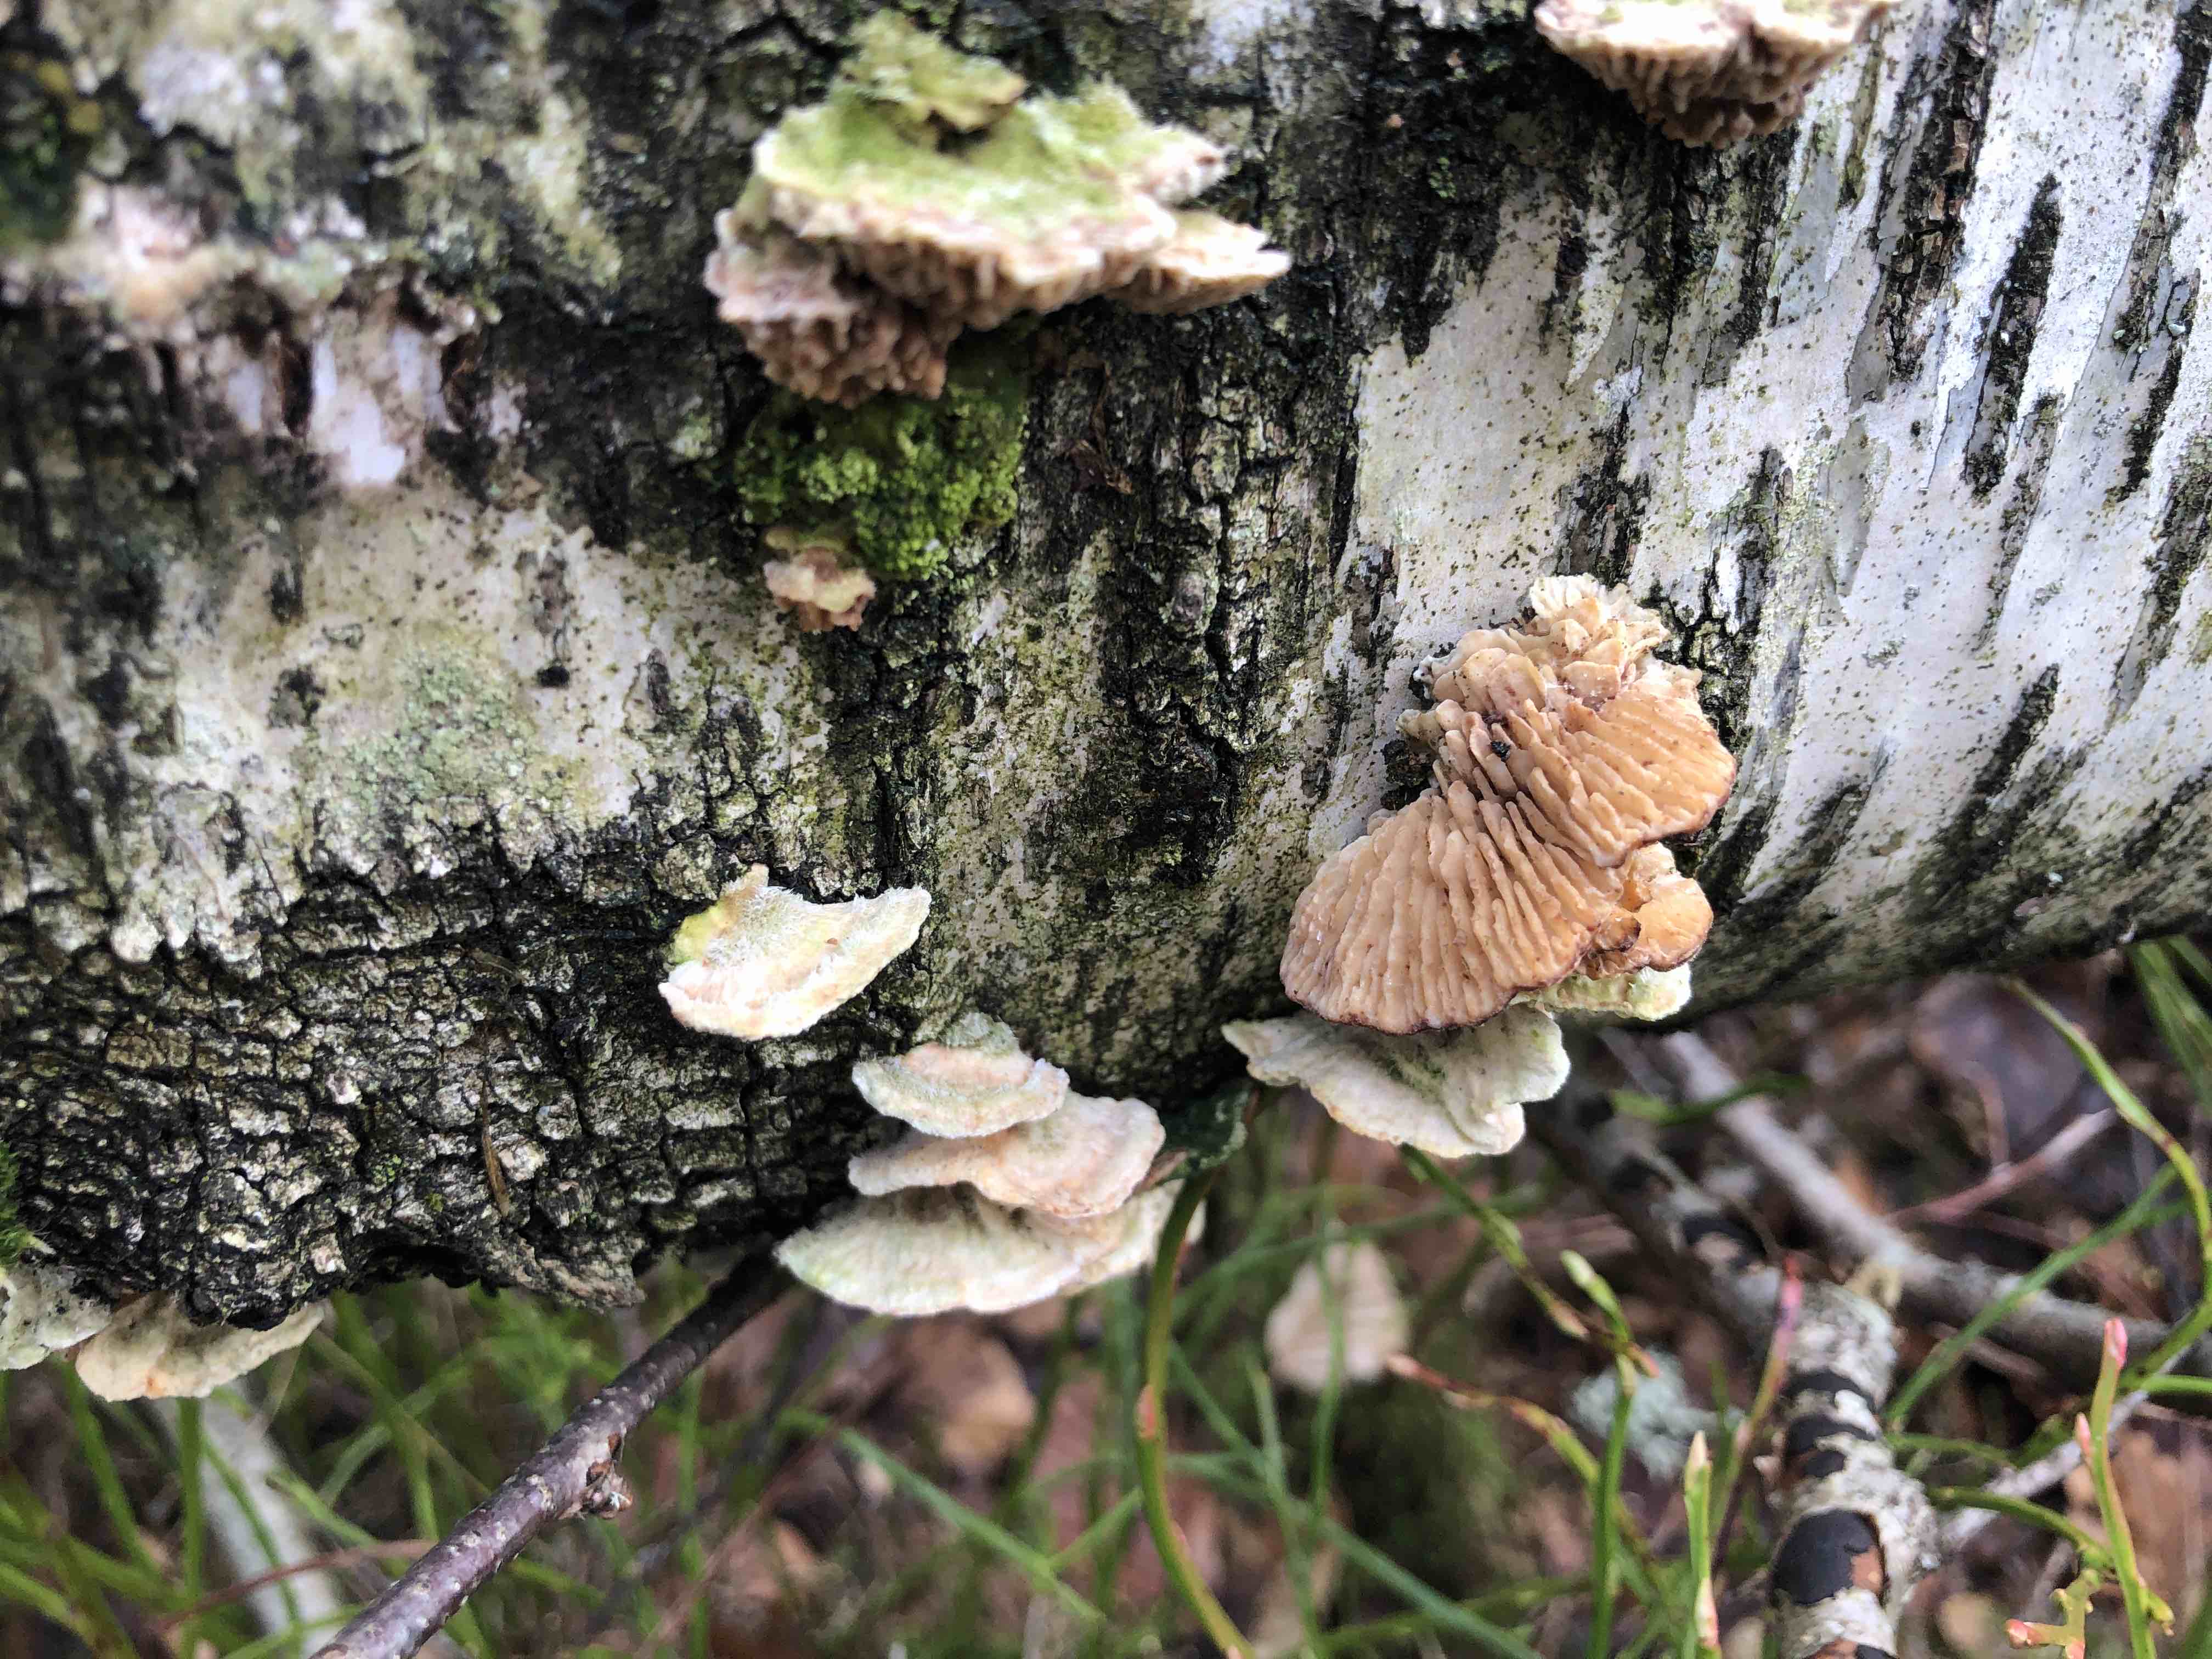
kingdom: Fungi
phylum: Basidiomycota
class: Agaricomycetes
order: Polyporales
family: Polyporaceae
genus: Lenzites
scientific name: Lenzites betulinus
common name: birke-læderporesvamp
